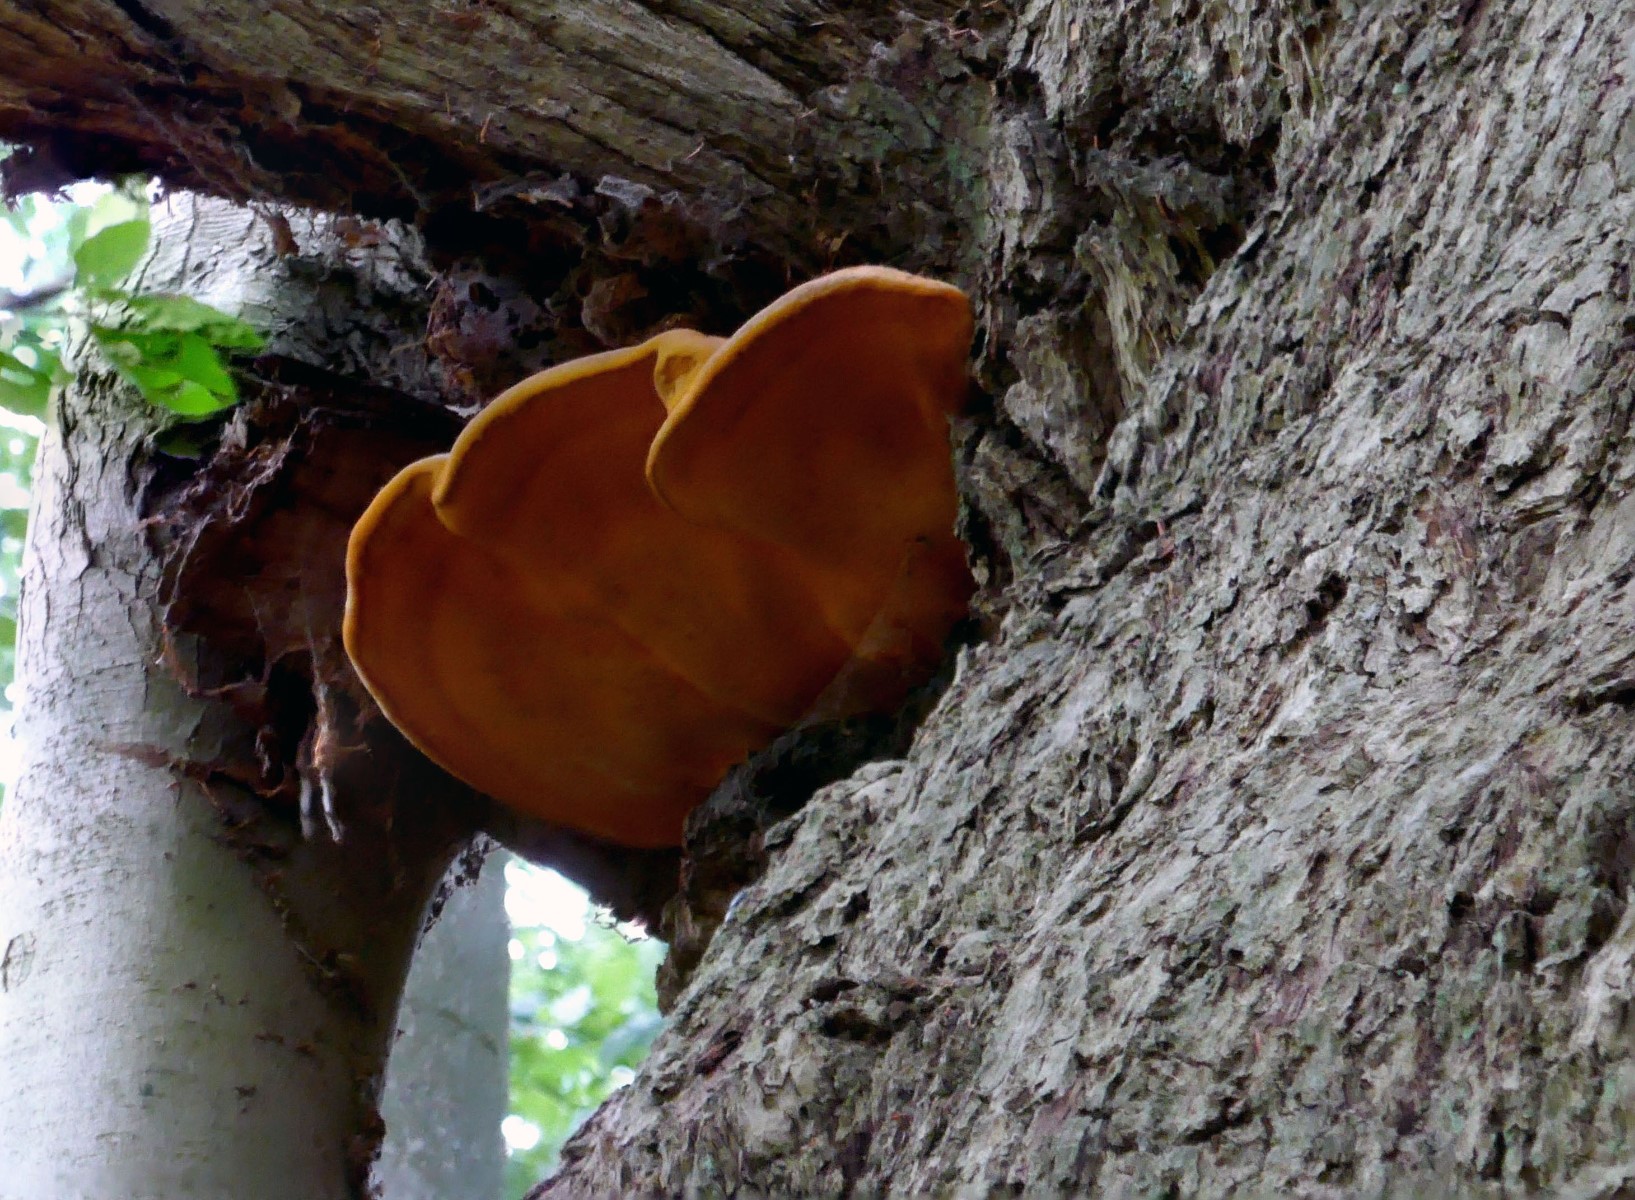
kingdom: Fungi
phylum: Basidiomycota
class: Agaricomycetes
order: Polyporales
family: Phanerochaetaceae
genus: Hapalopilus
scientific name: Hapalopilus croceus
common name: safrangul pragtporesvamp
